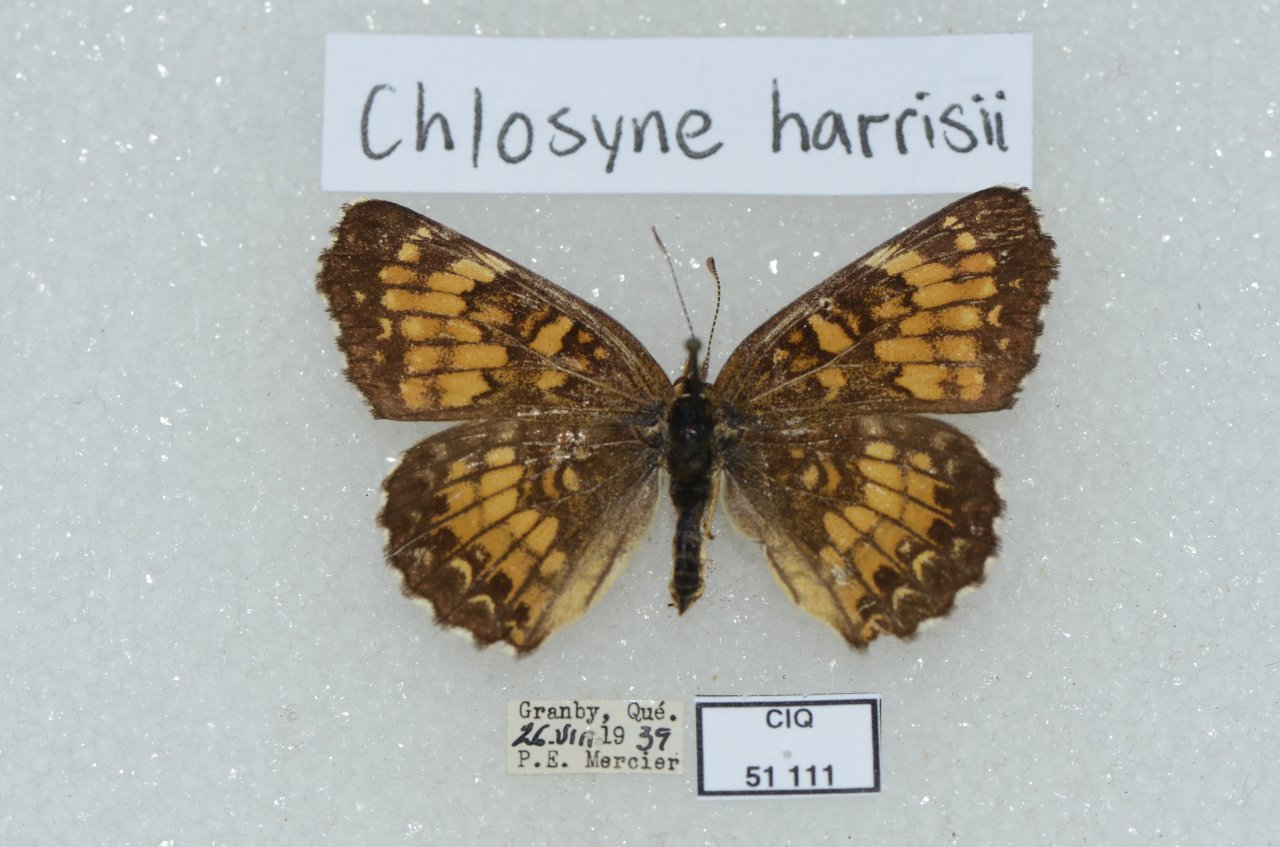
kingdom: Animalia
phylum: Arthropoda
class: Insecta
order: Lepidoptera
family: Nymphalidae
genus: Chlosyne
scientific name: Chlosyne nycteis
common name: Silvery Checkerspot
